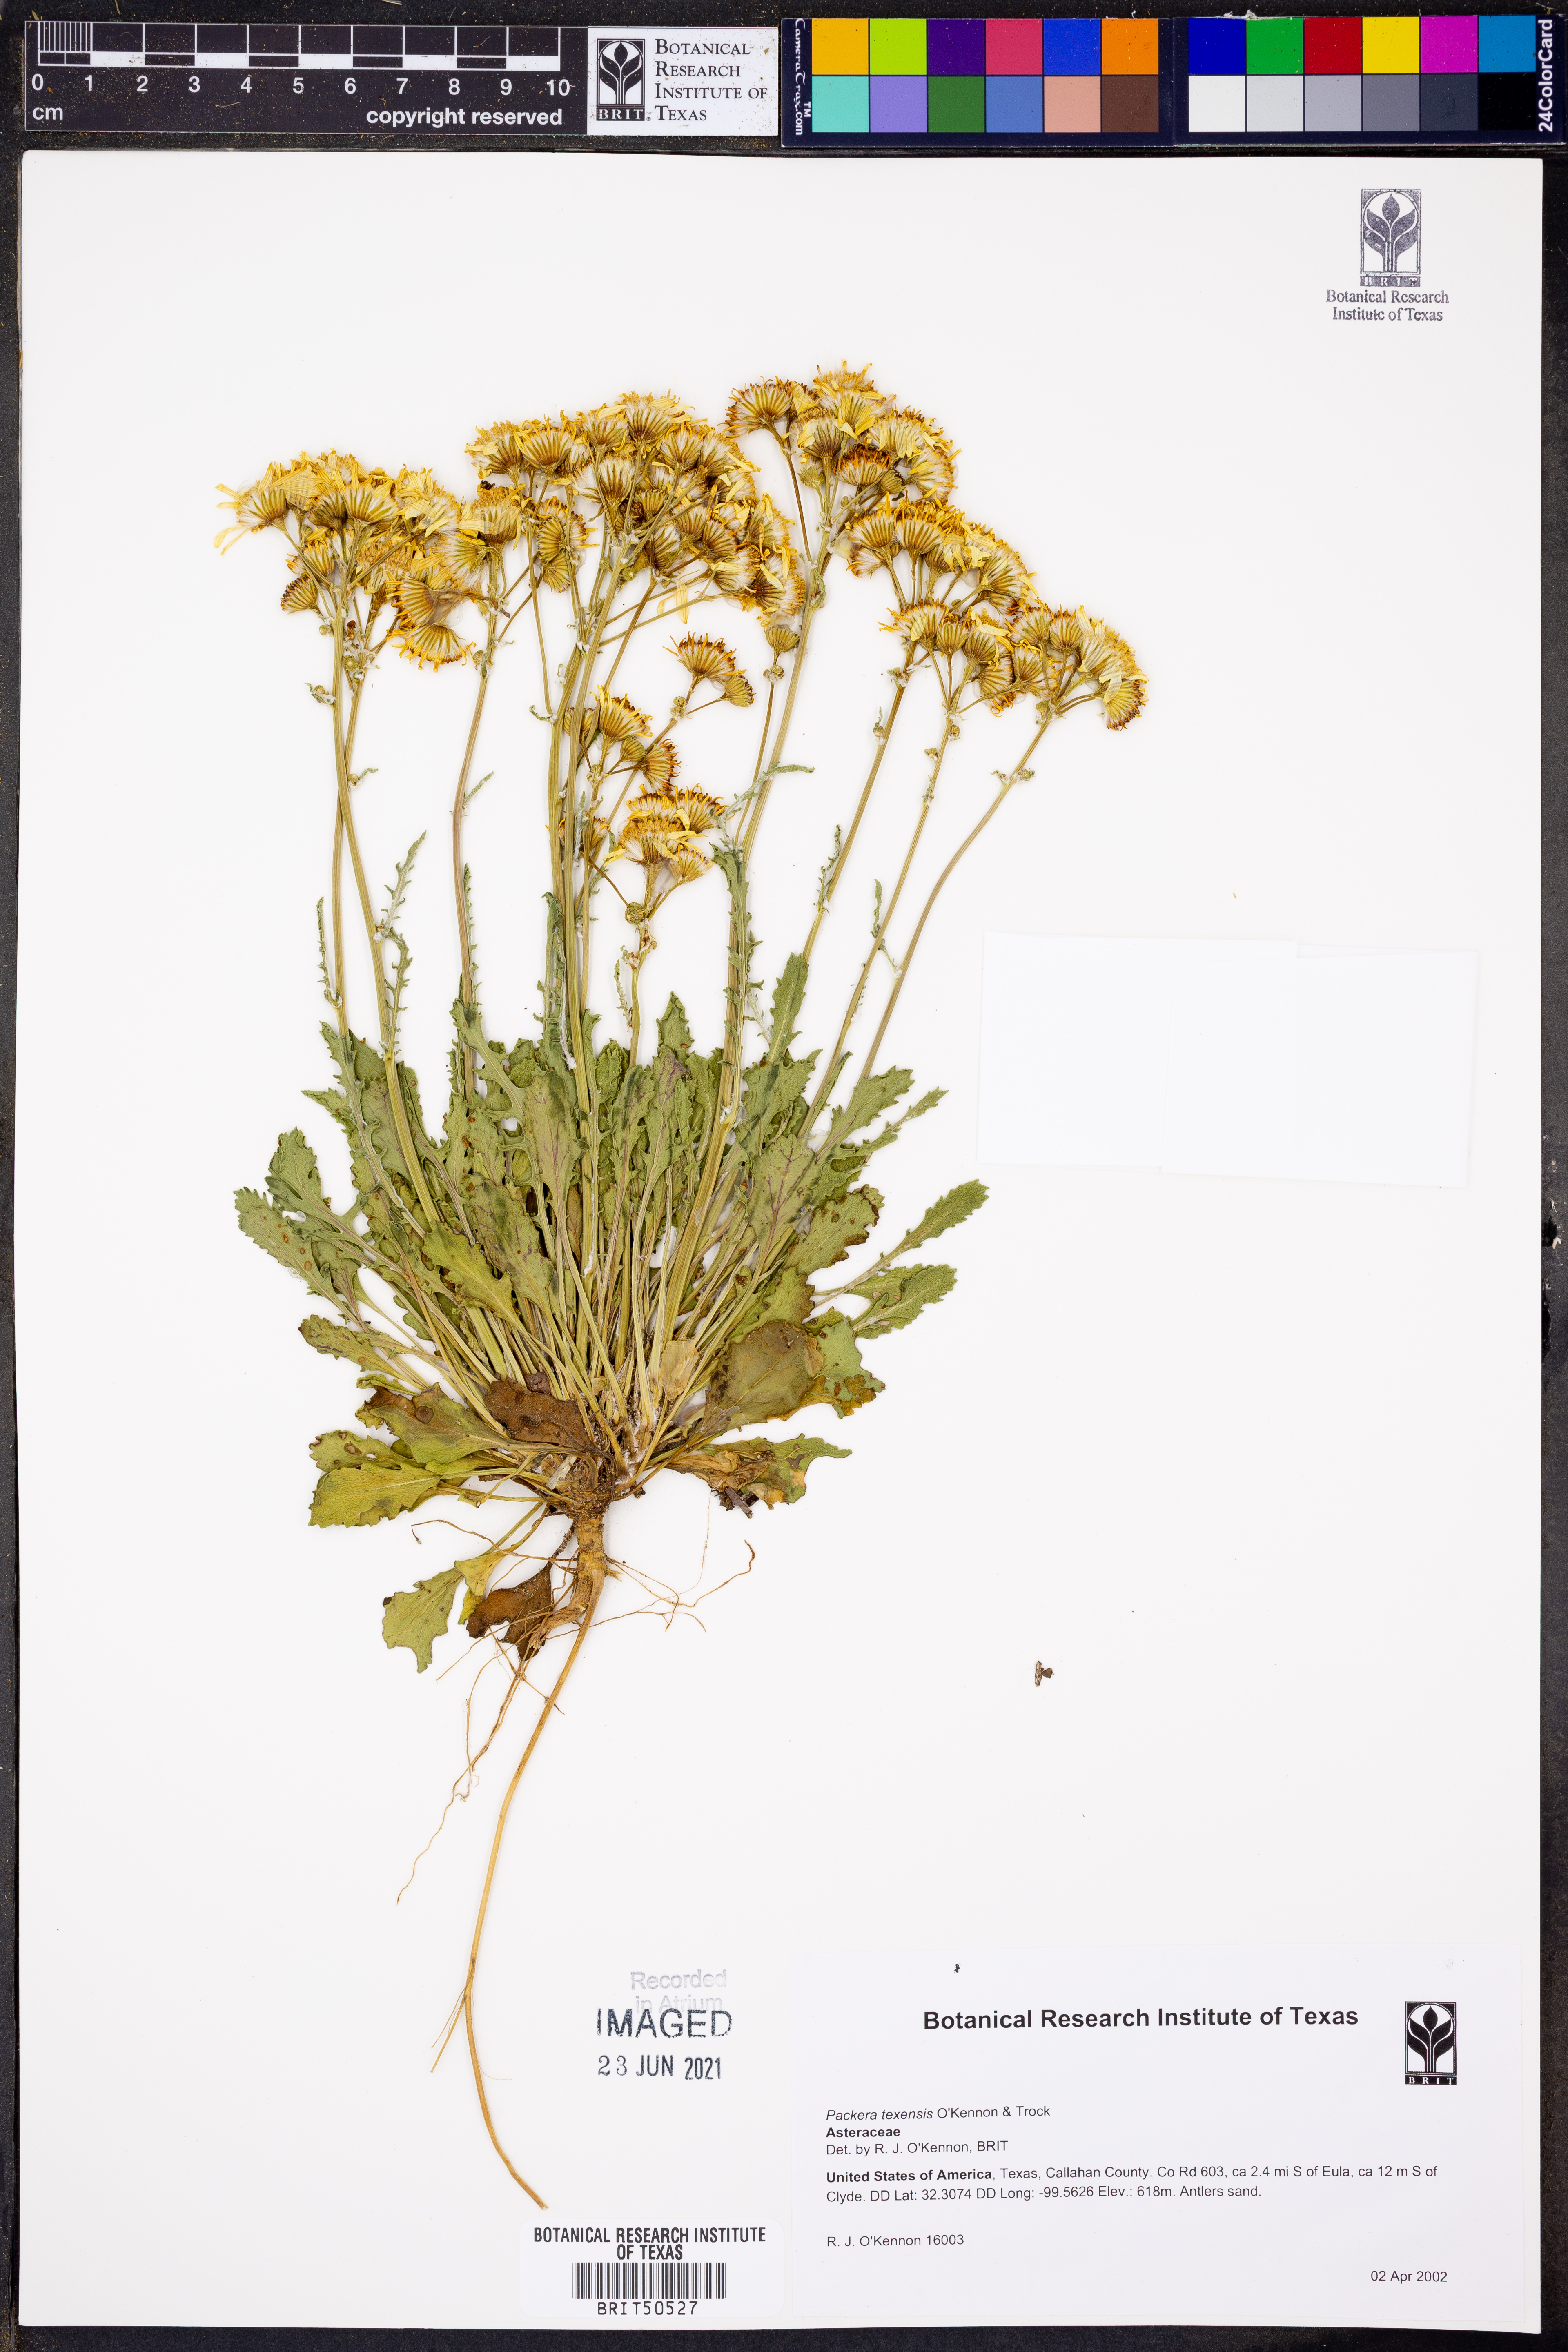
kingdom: Plantae
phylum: Tracheophyta
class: Magnoliopsida
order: Asterales
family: Asteraceae
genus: Packera
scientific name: Packera texensis
